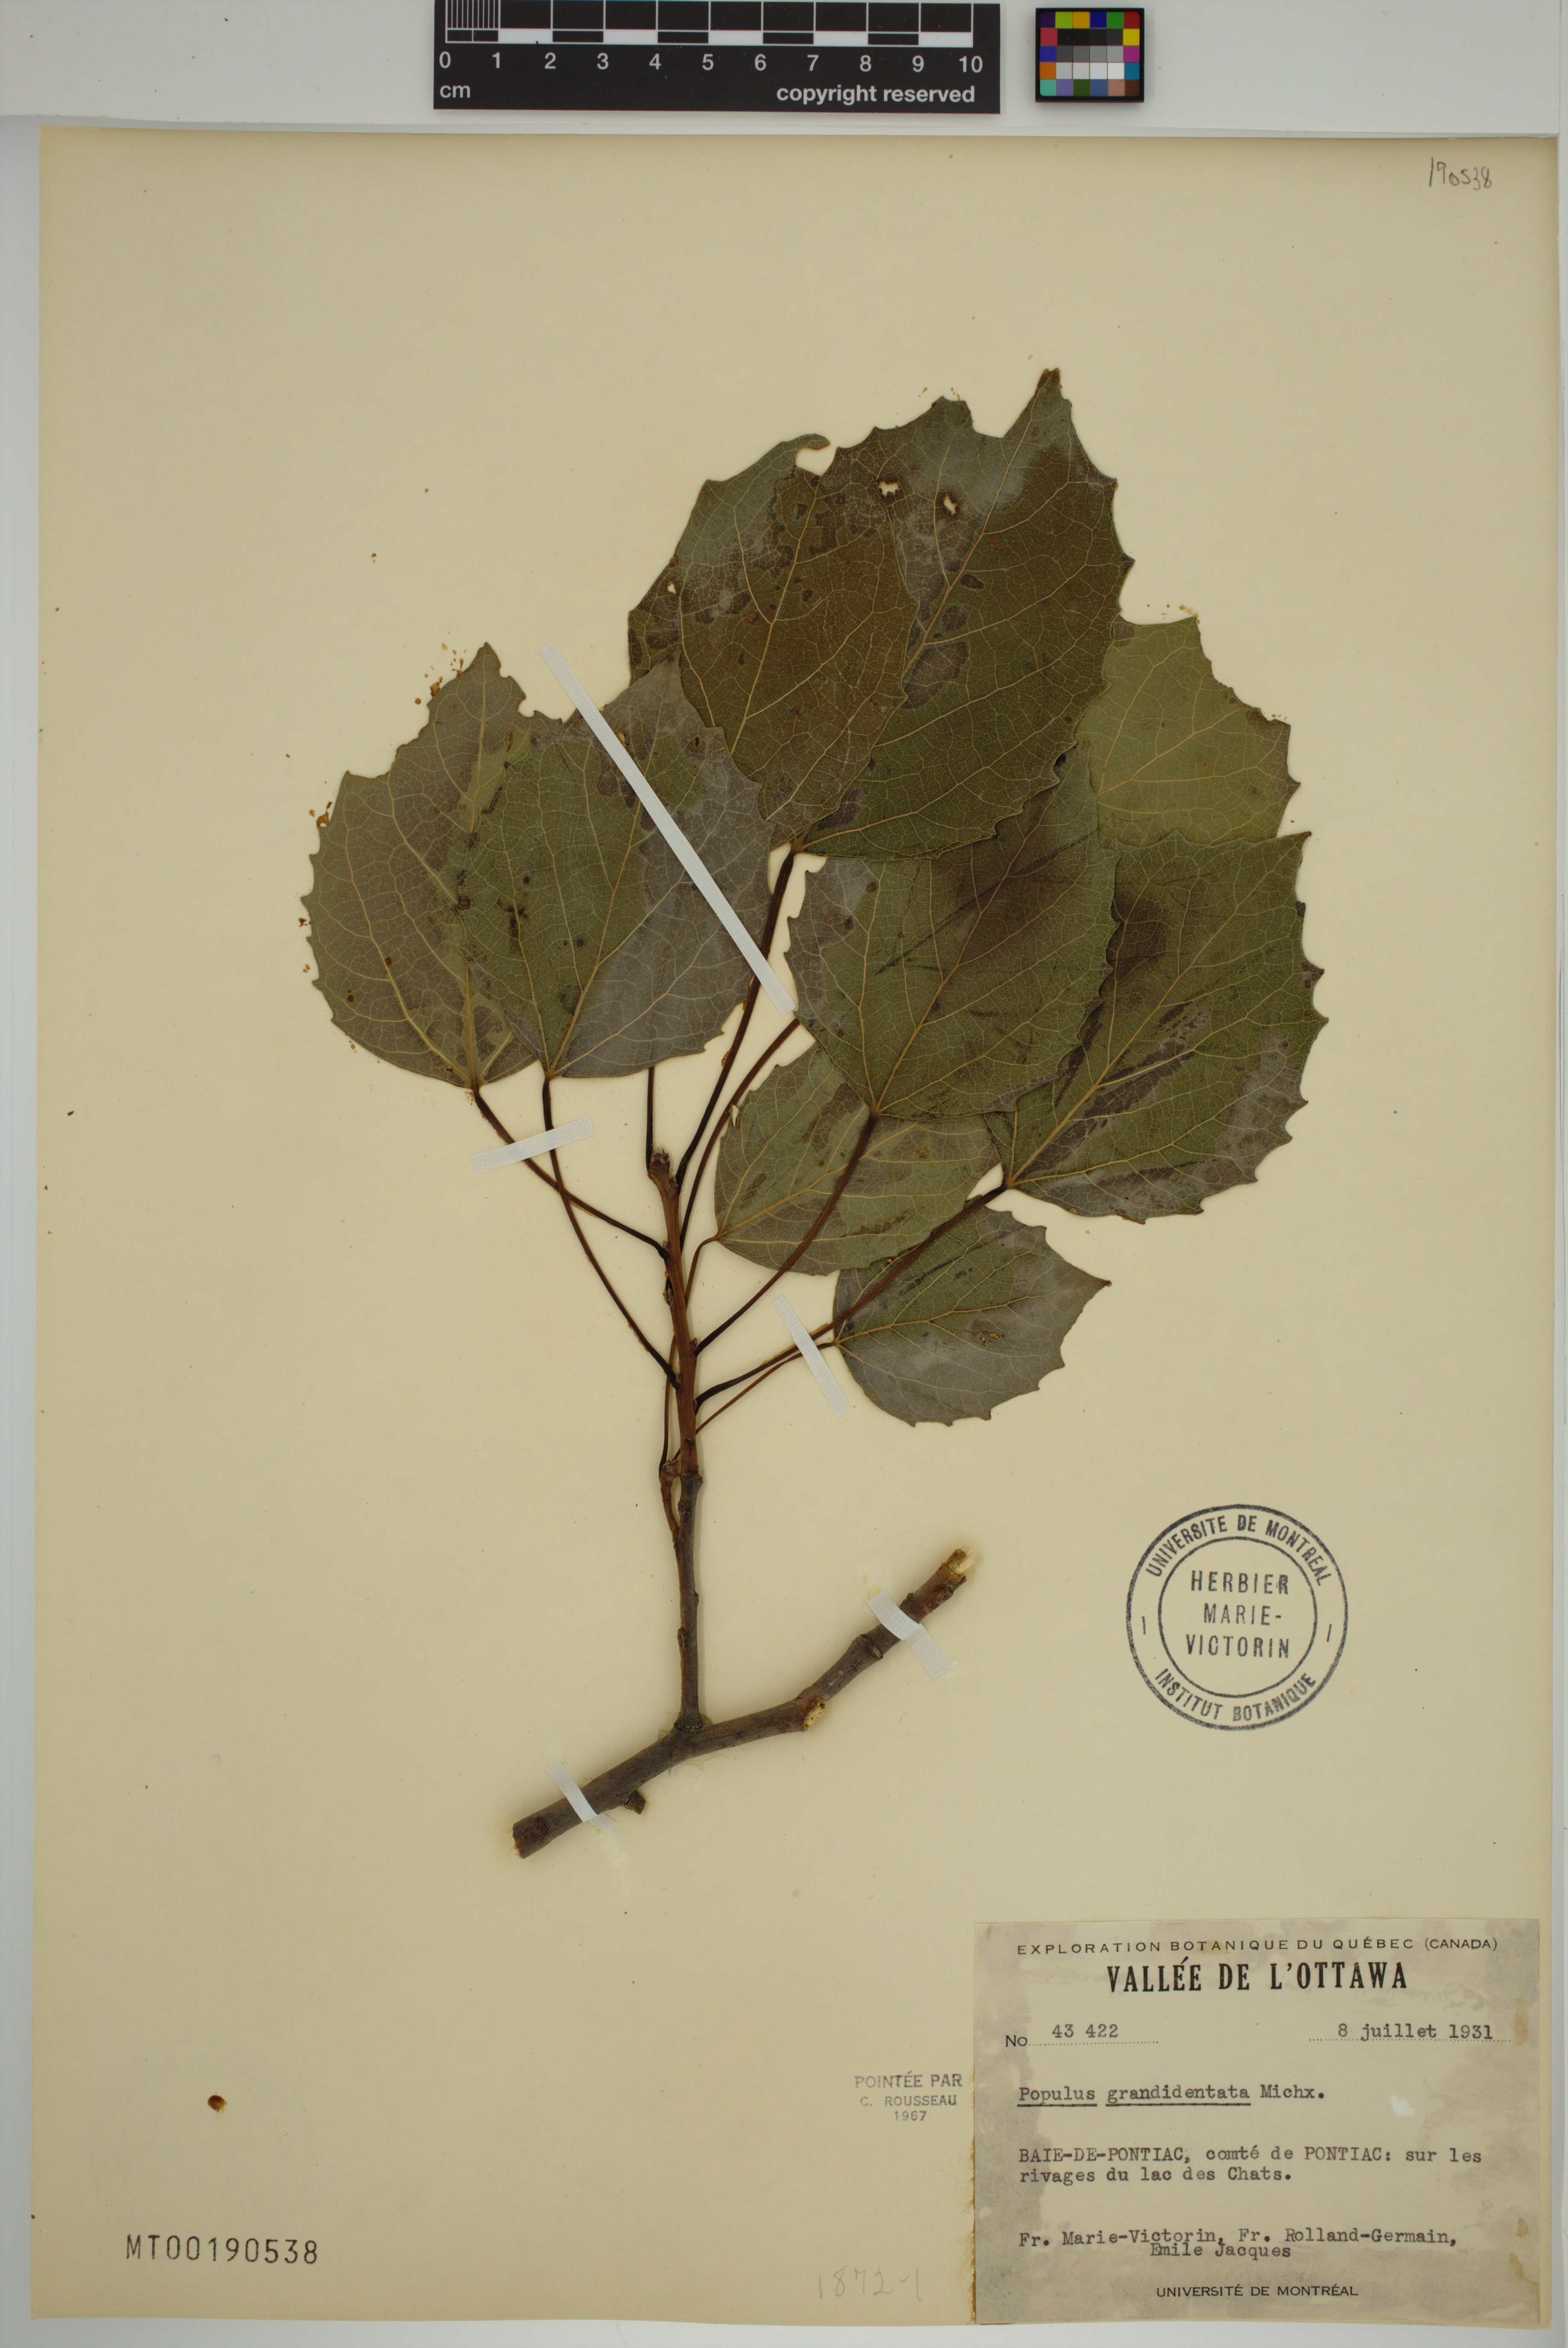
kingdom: Plantae
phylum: Tracheophyta
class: Magnoliopsida
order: Malpighiales
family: Salicaceae
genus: Populus
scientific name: Populus grandidentata
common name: Bigtooth aspen
